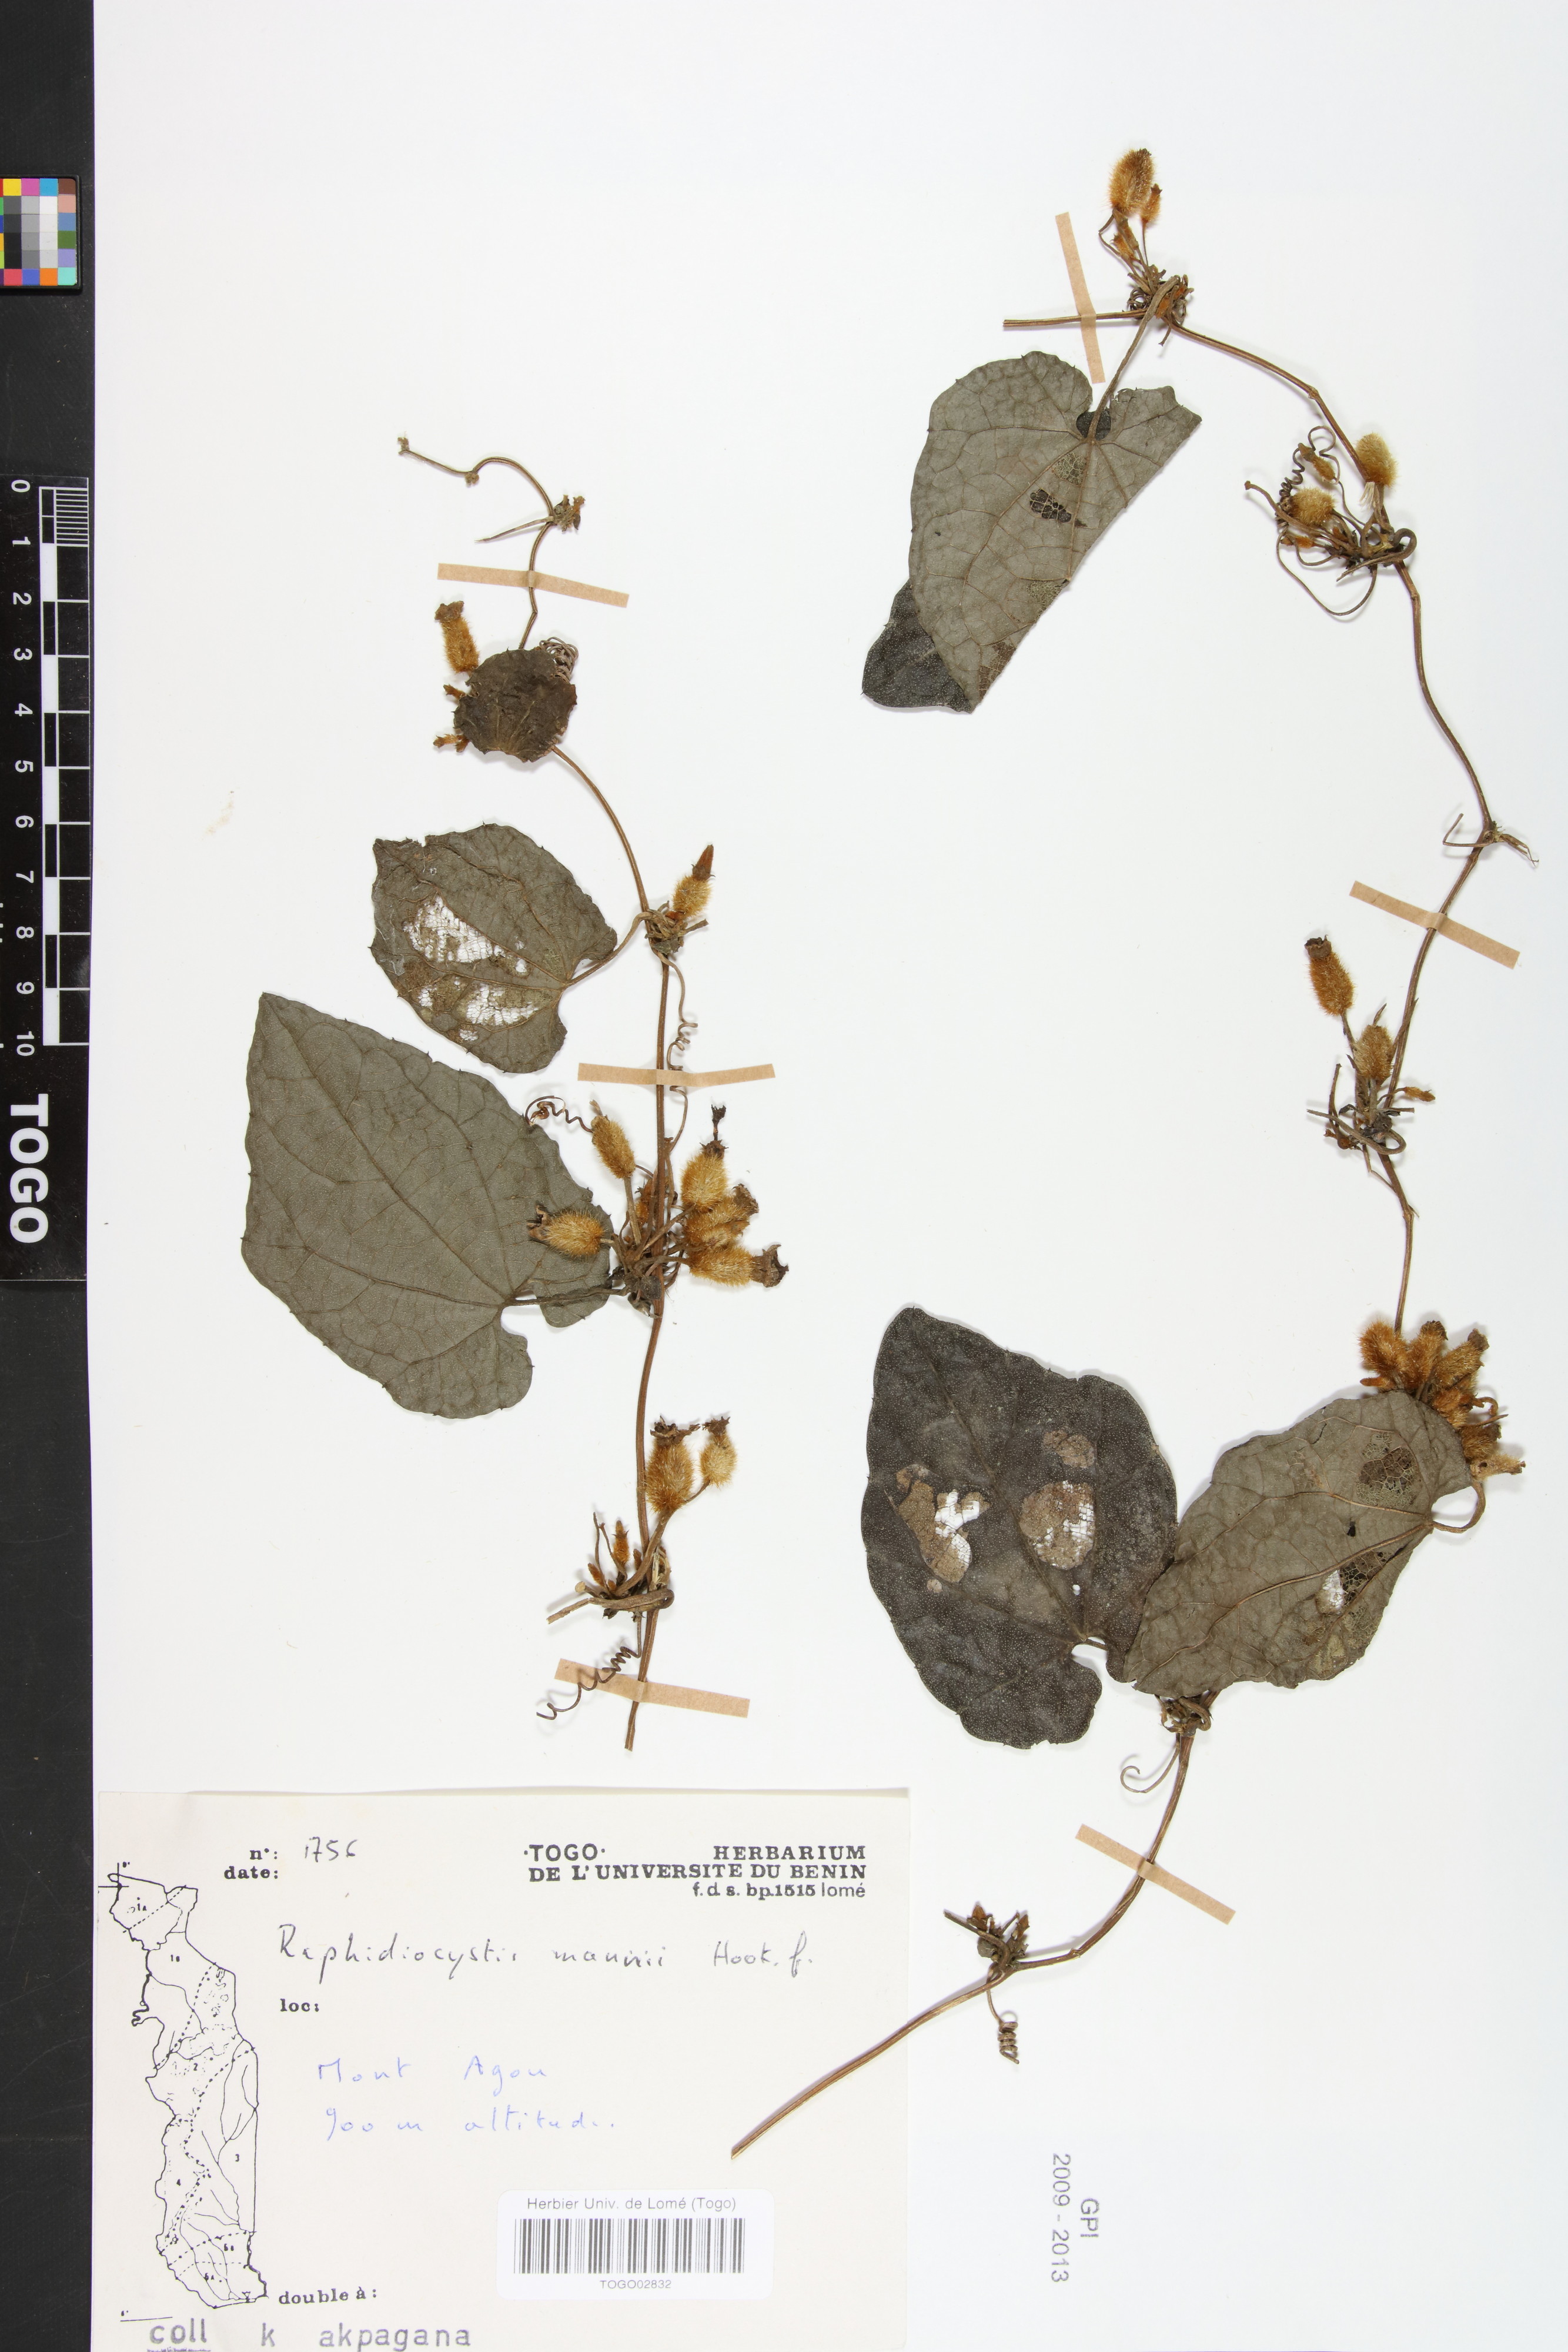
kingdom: Plantae
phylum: Tracheophyta
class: Magnoliopsida
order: Cucurbitales
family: Cucurbitaceae
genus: Raphidiocystis
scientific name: Raphidiocystis mannii
